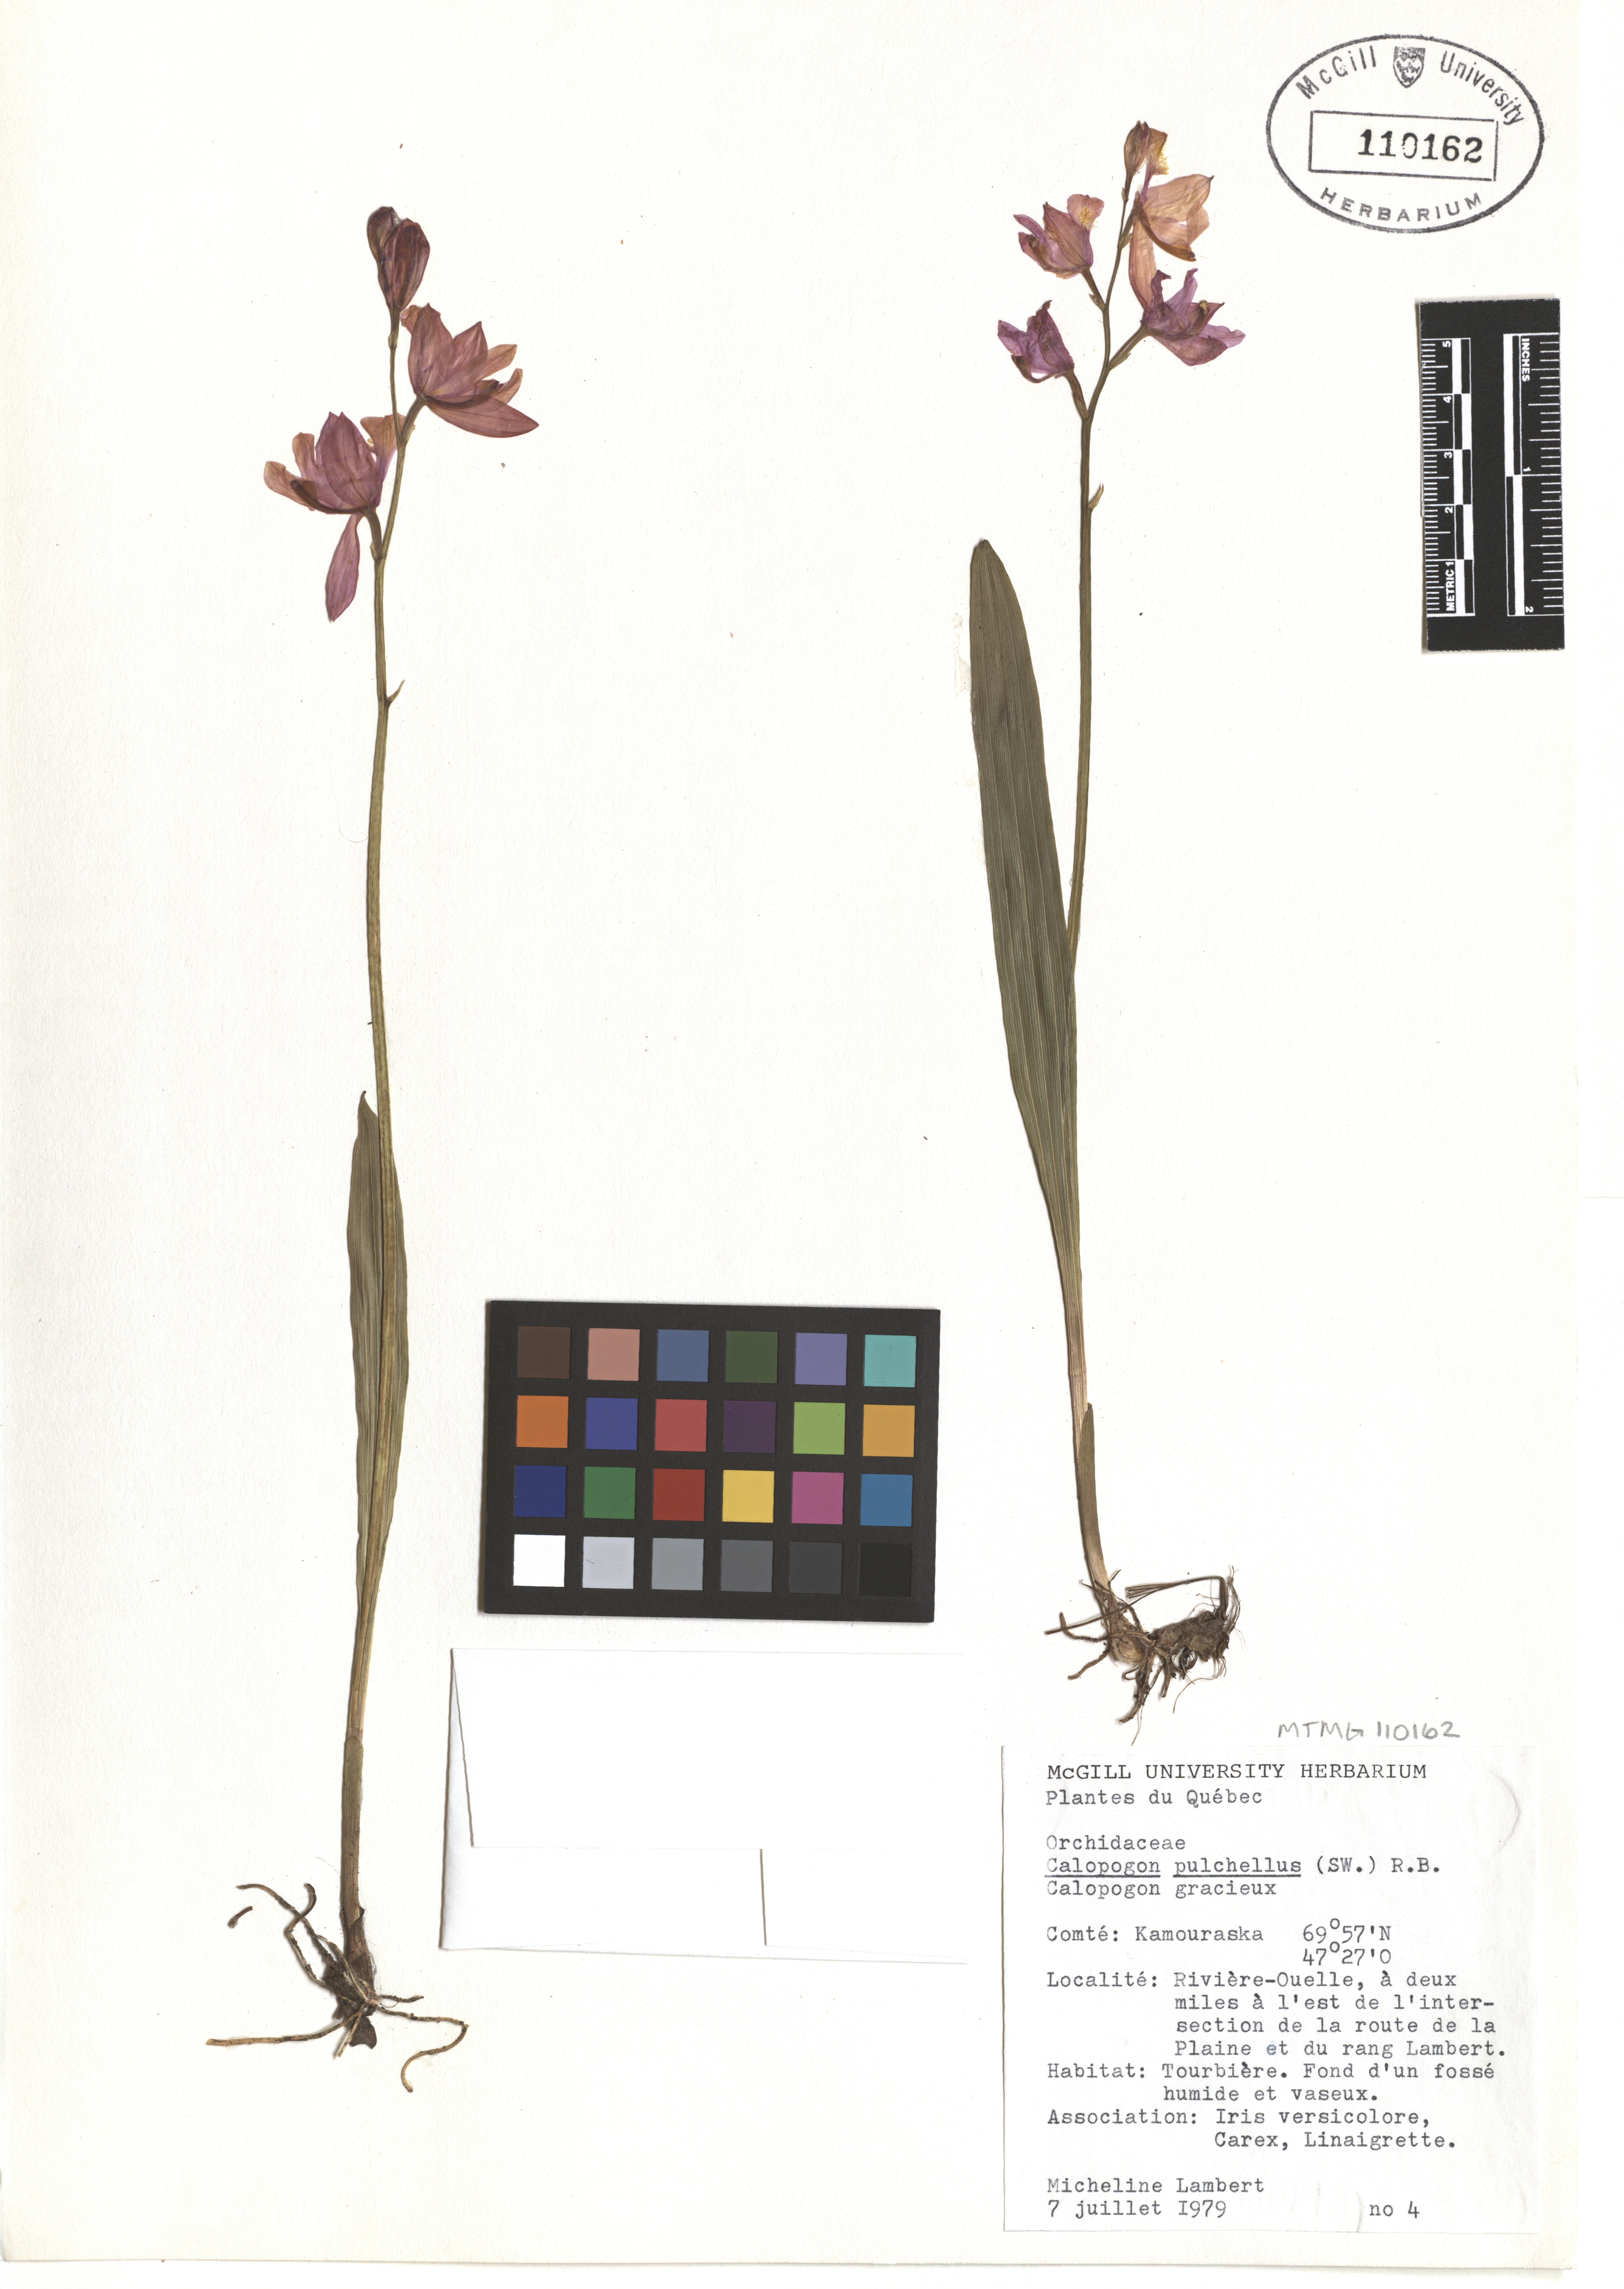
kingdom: Plantae
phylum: Tracheophyta
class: Liliopsida
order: Asparagales
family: Orchidaceae
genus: Calopogon
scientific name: Calopogon tuberosus
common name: Grass-pink
